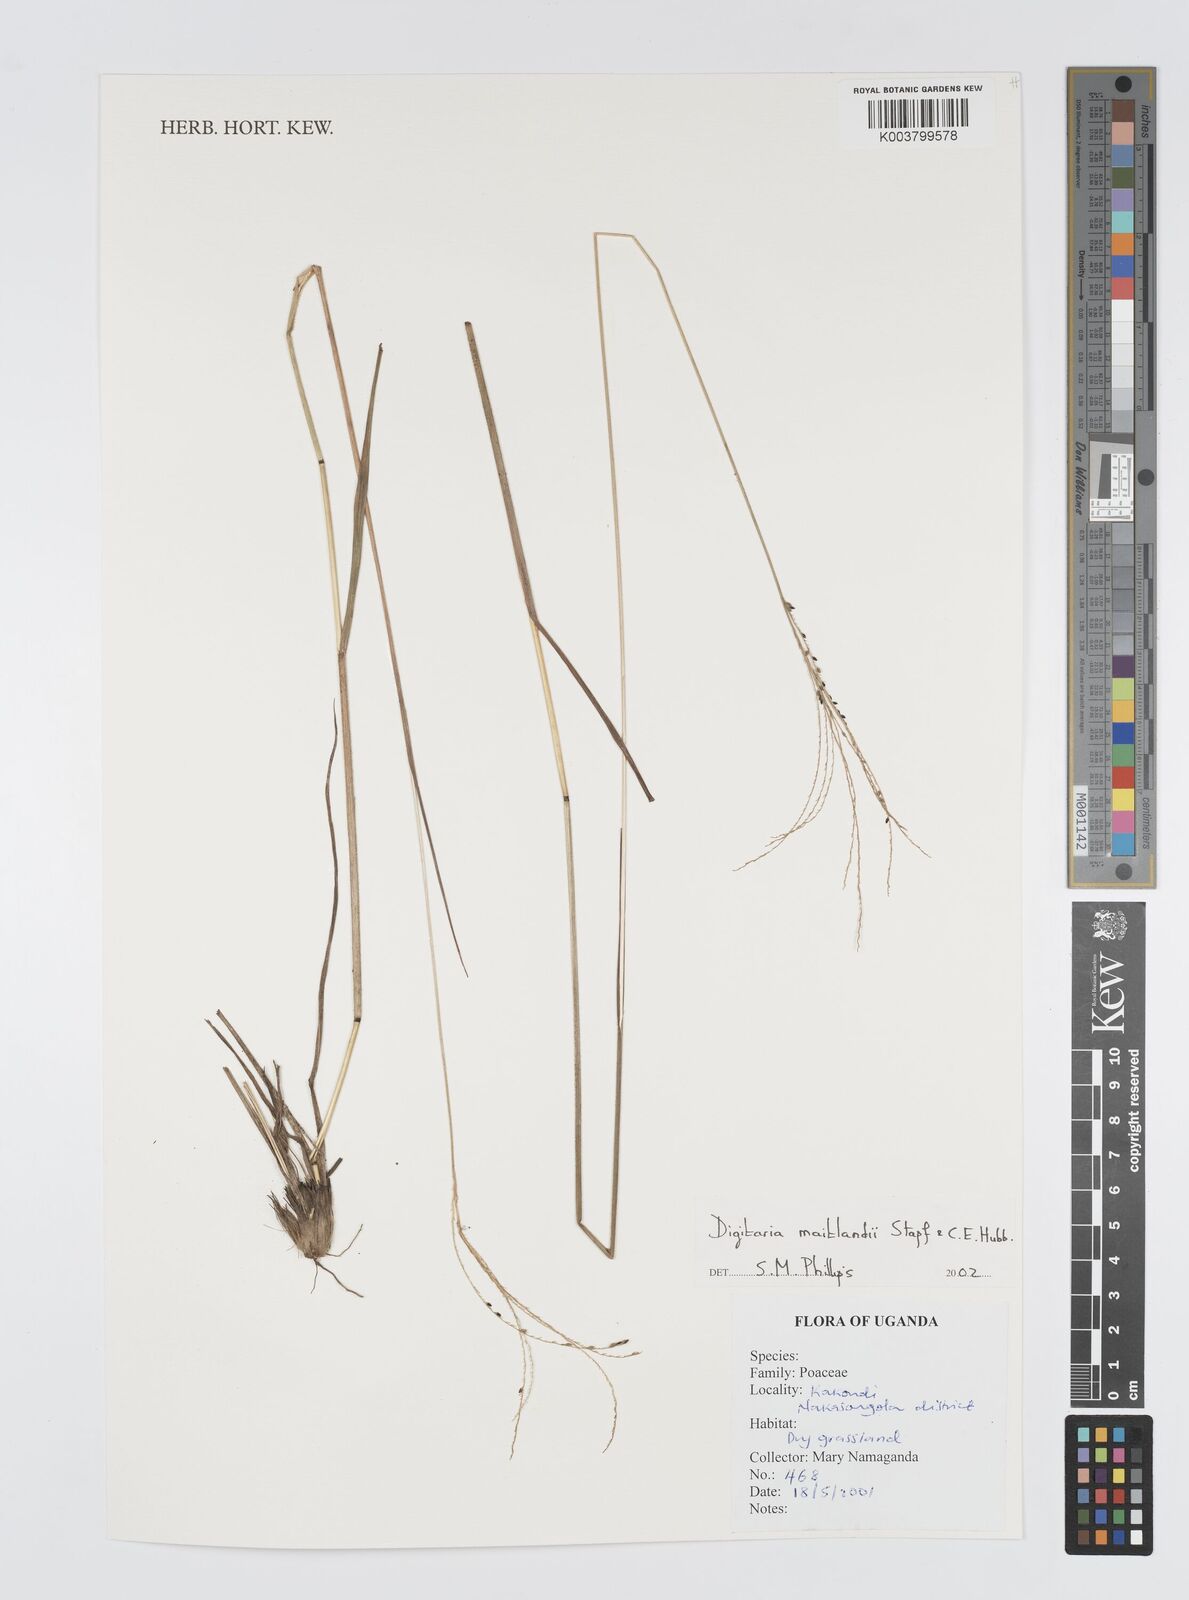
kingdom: Plantae
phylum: Tracheophyta
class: Liliopsida
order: Poales
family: Poaceae
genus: Digitaria
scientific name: Digitaria maitlandii
